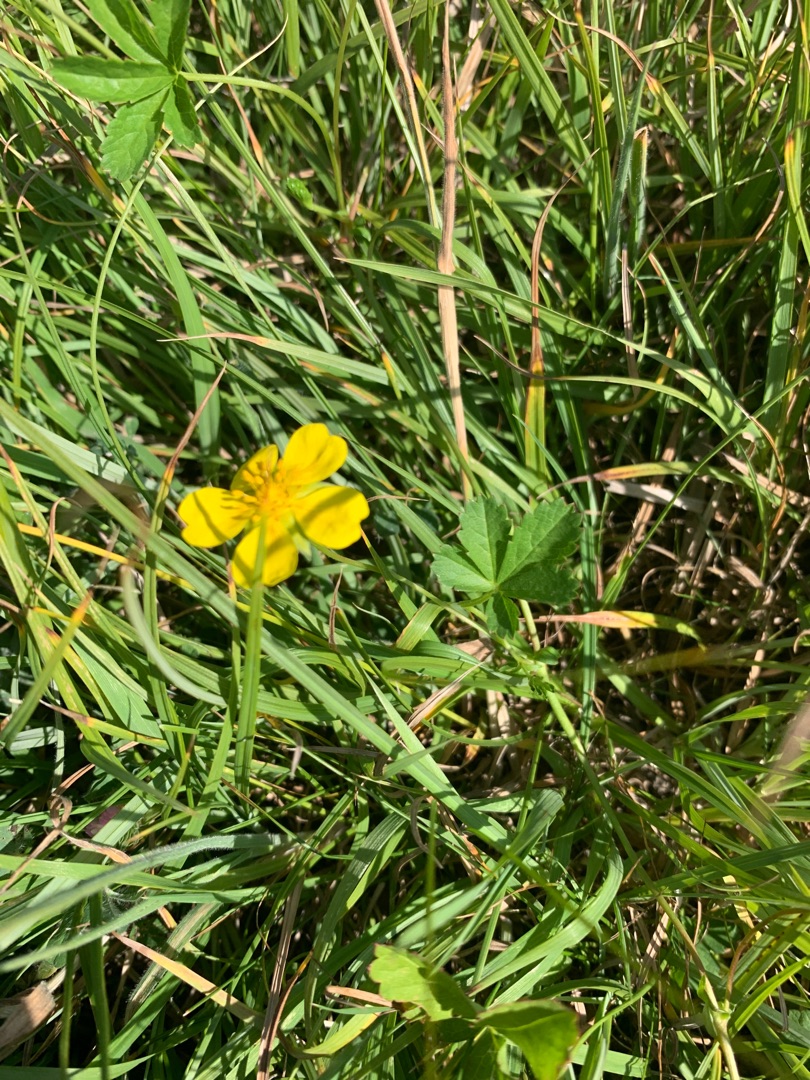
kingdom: Plantae
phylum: Tracheophyta
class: Magnoliopsida
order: Rosales
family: Rosaceae
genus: Potentilla
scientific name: Potentilla reptans
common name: Krybende potentil
